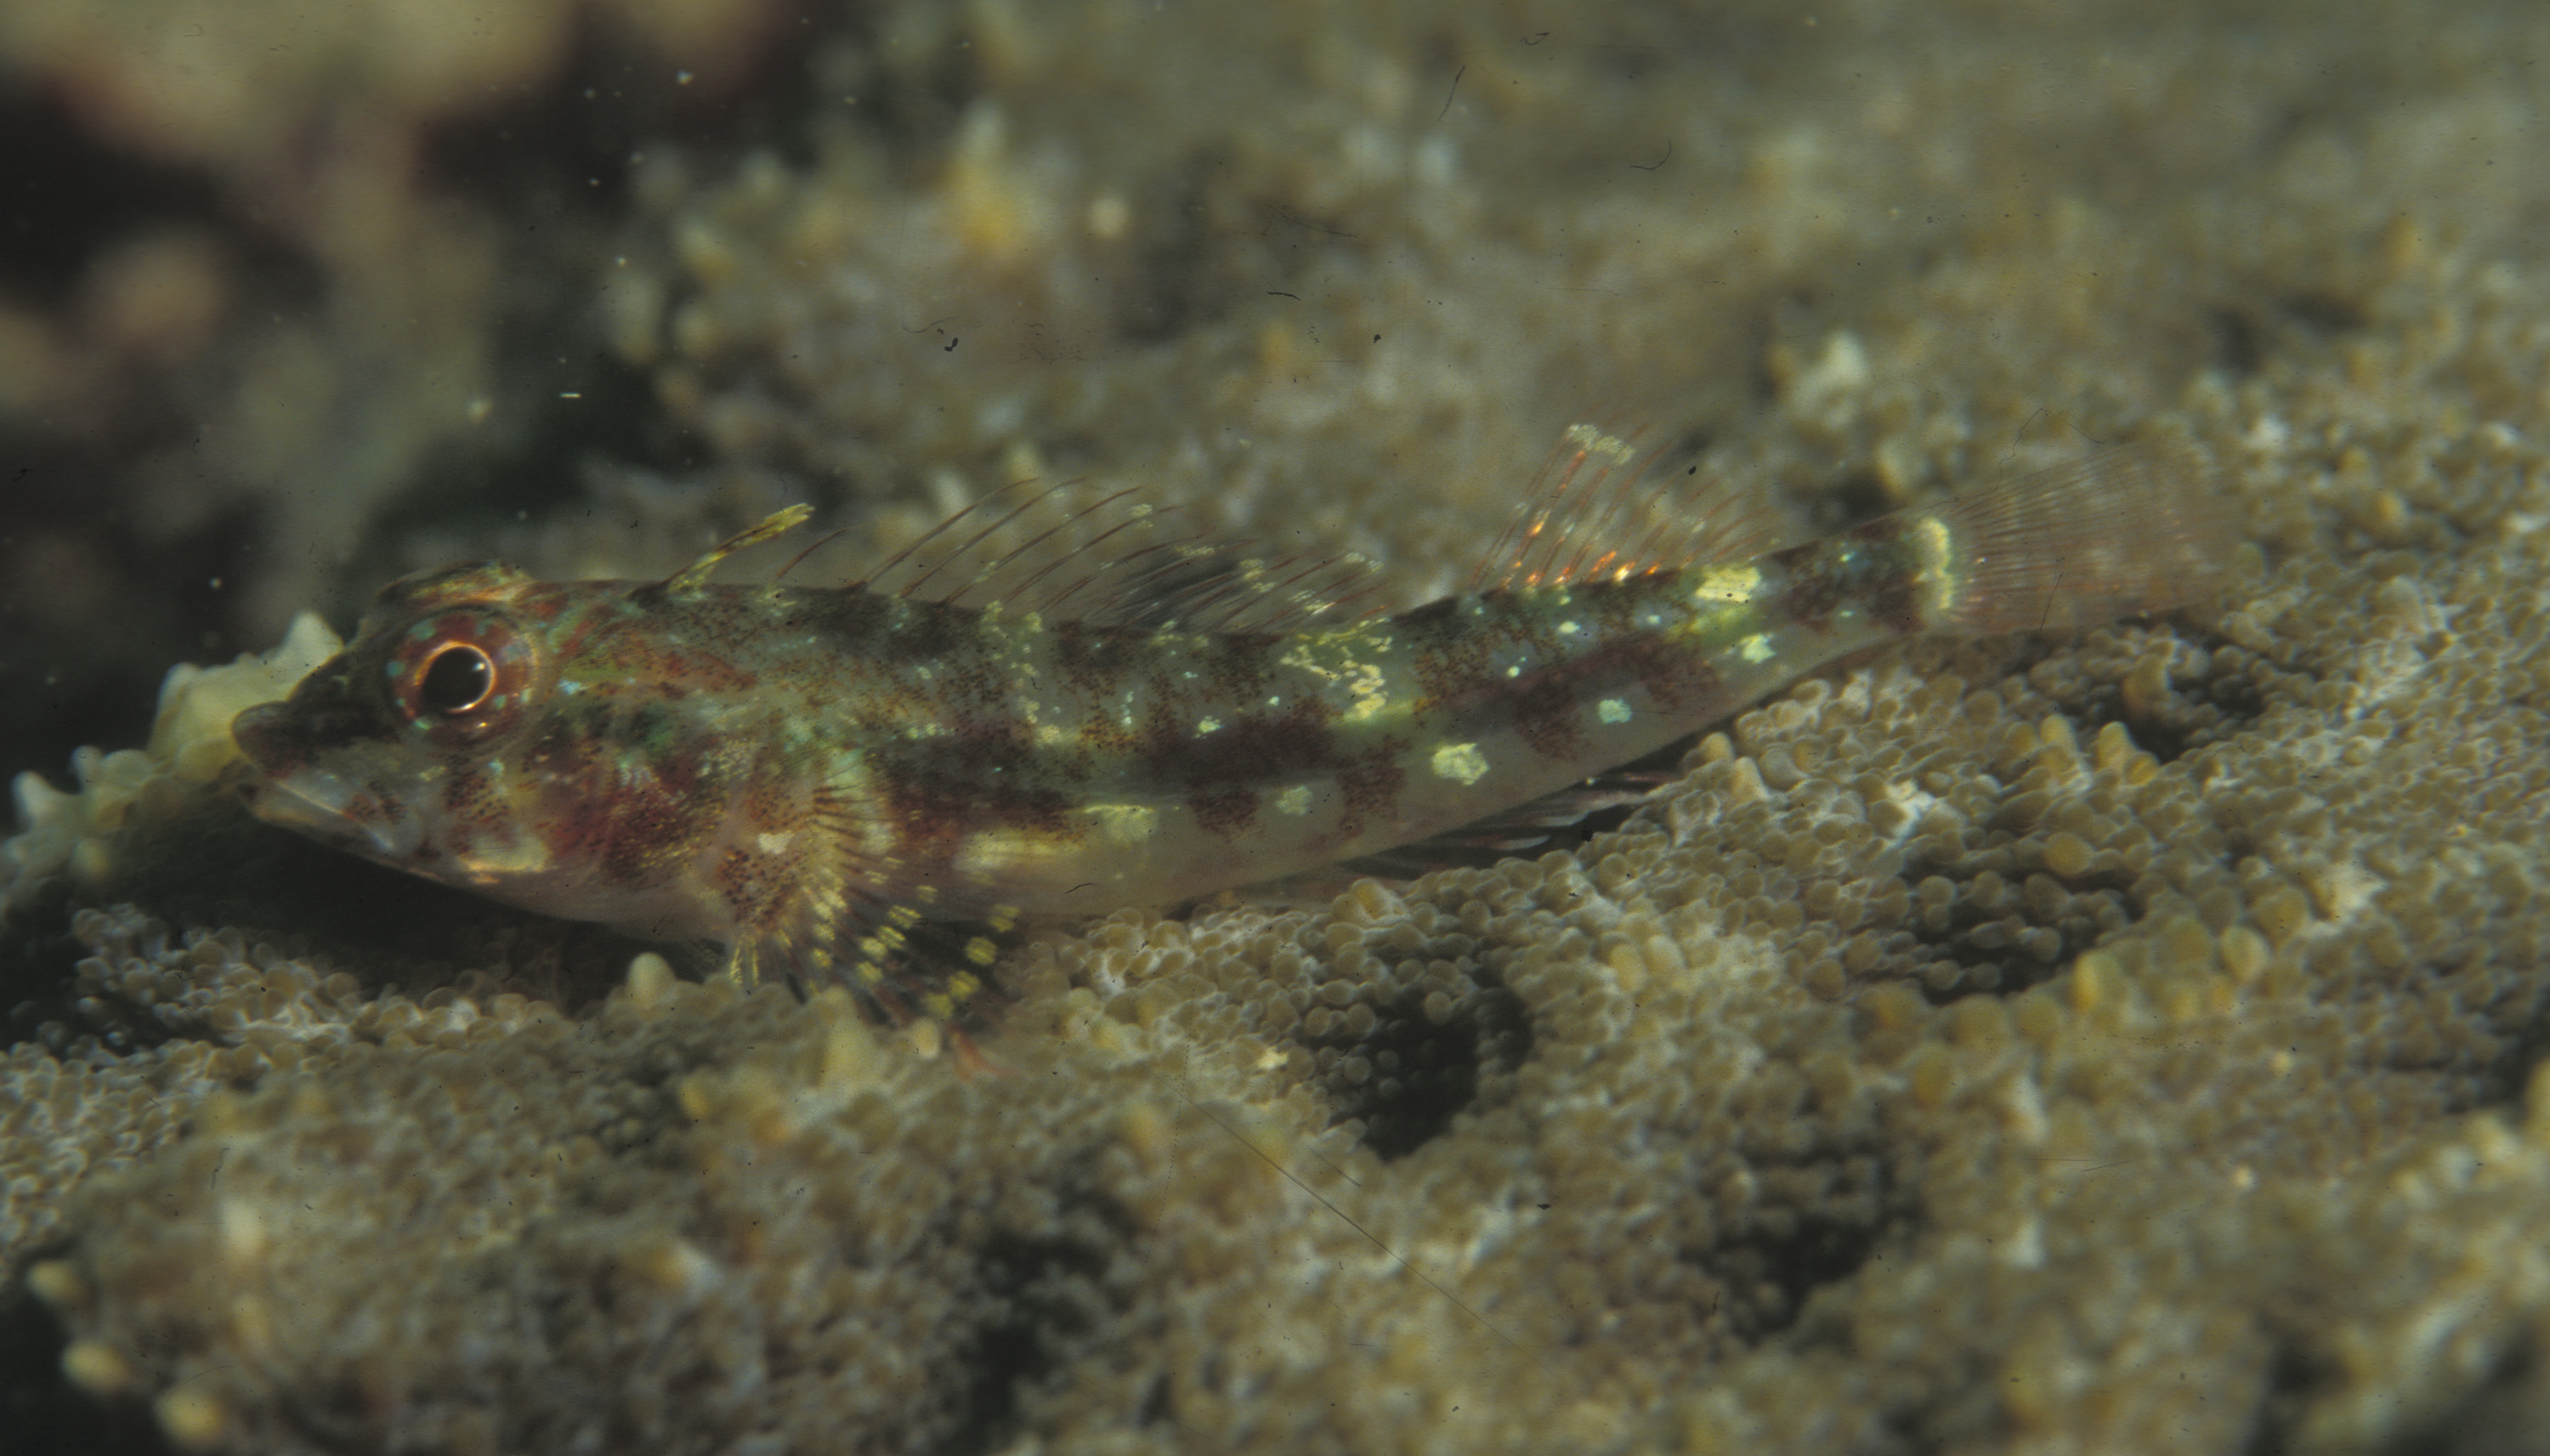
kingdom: Animalia
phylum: Chordata
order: Perciformes
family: Tripterygiidae
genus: Helcogramma
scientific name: Helcogramma steinitzi
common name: Red triplefin
